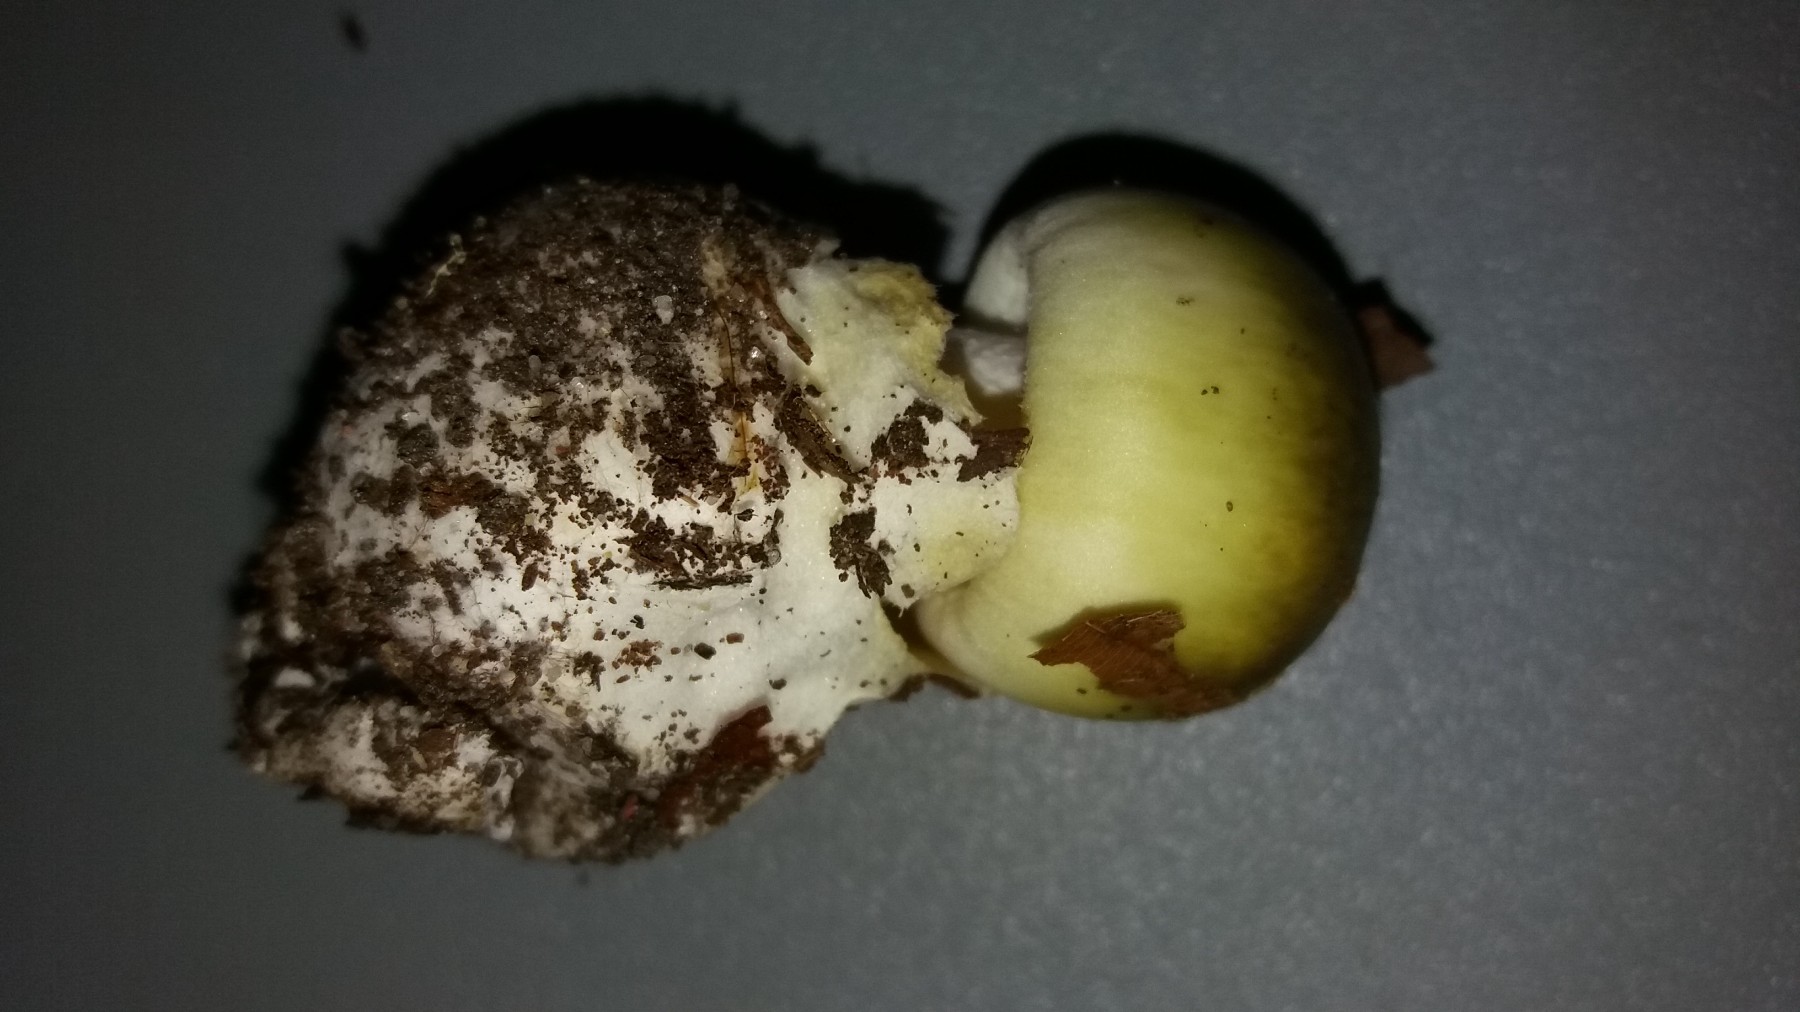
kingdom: Fungi
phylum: Basidiomycota
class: Agaricomycetes
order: Agaricales
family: Amanitaceae
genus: Amanita
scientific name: Amanita phalloides
